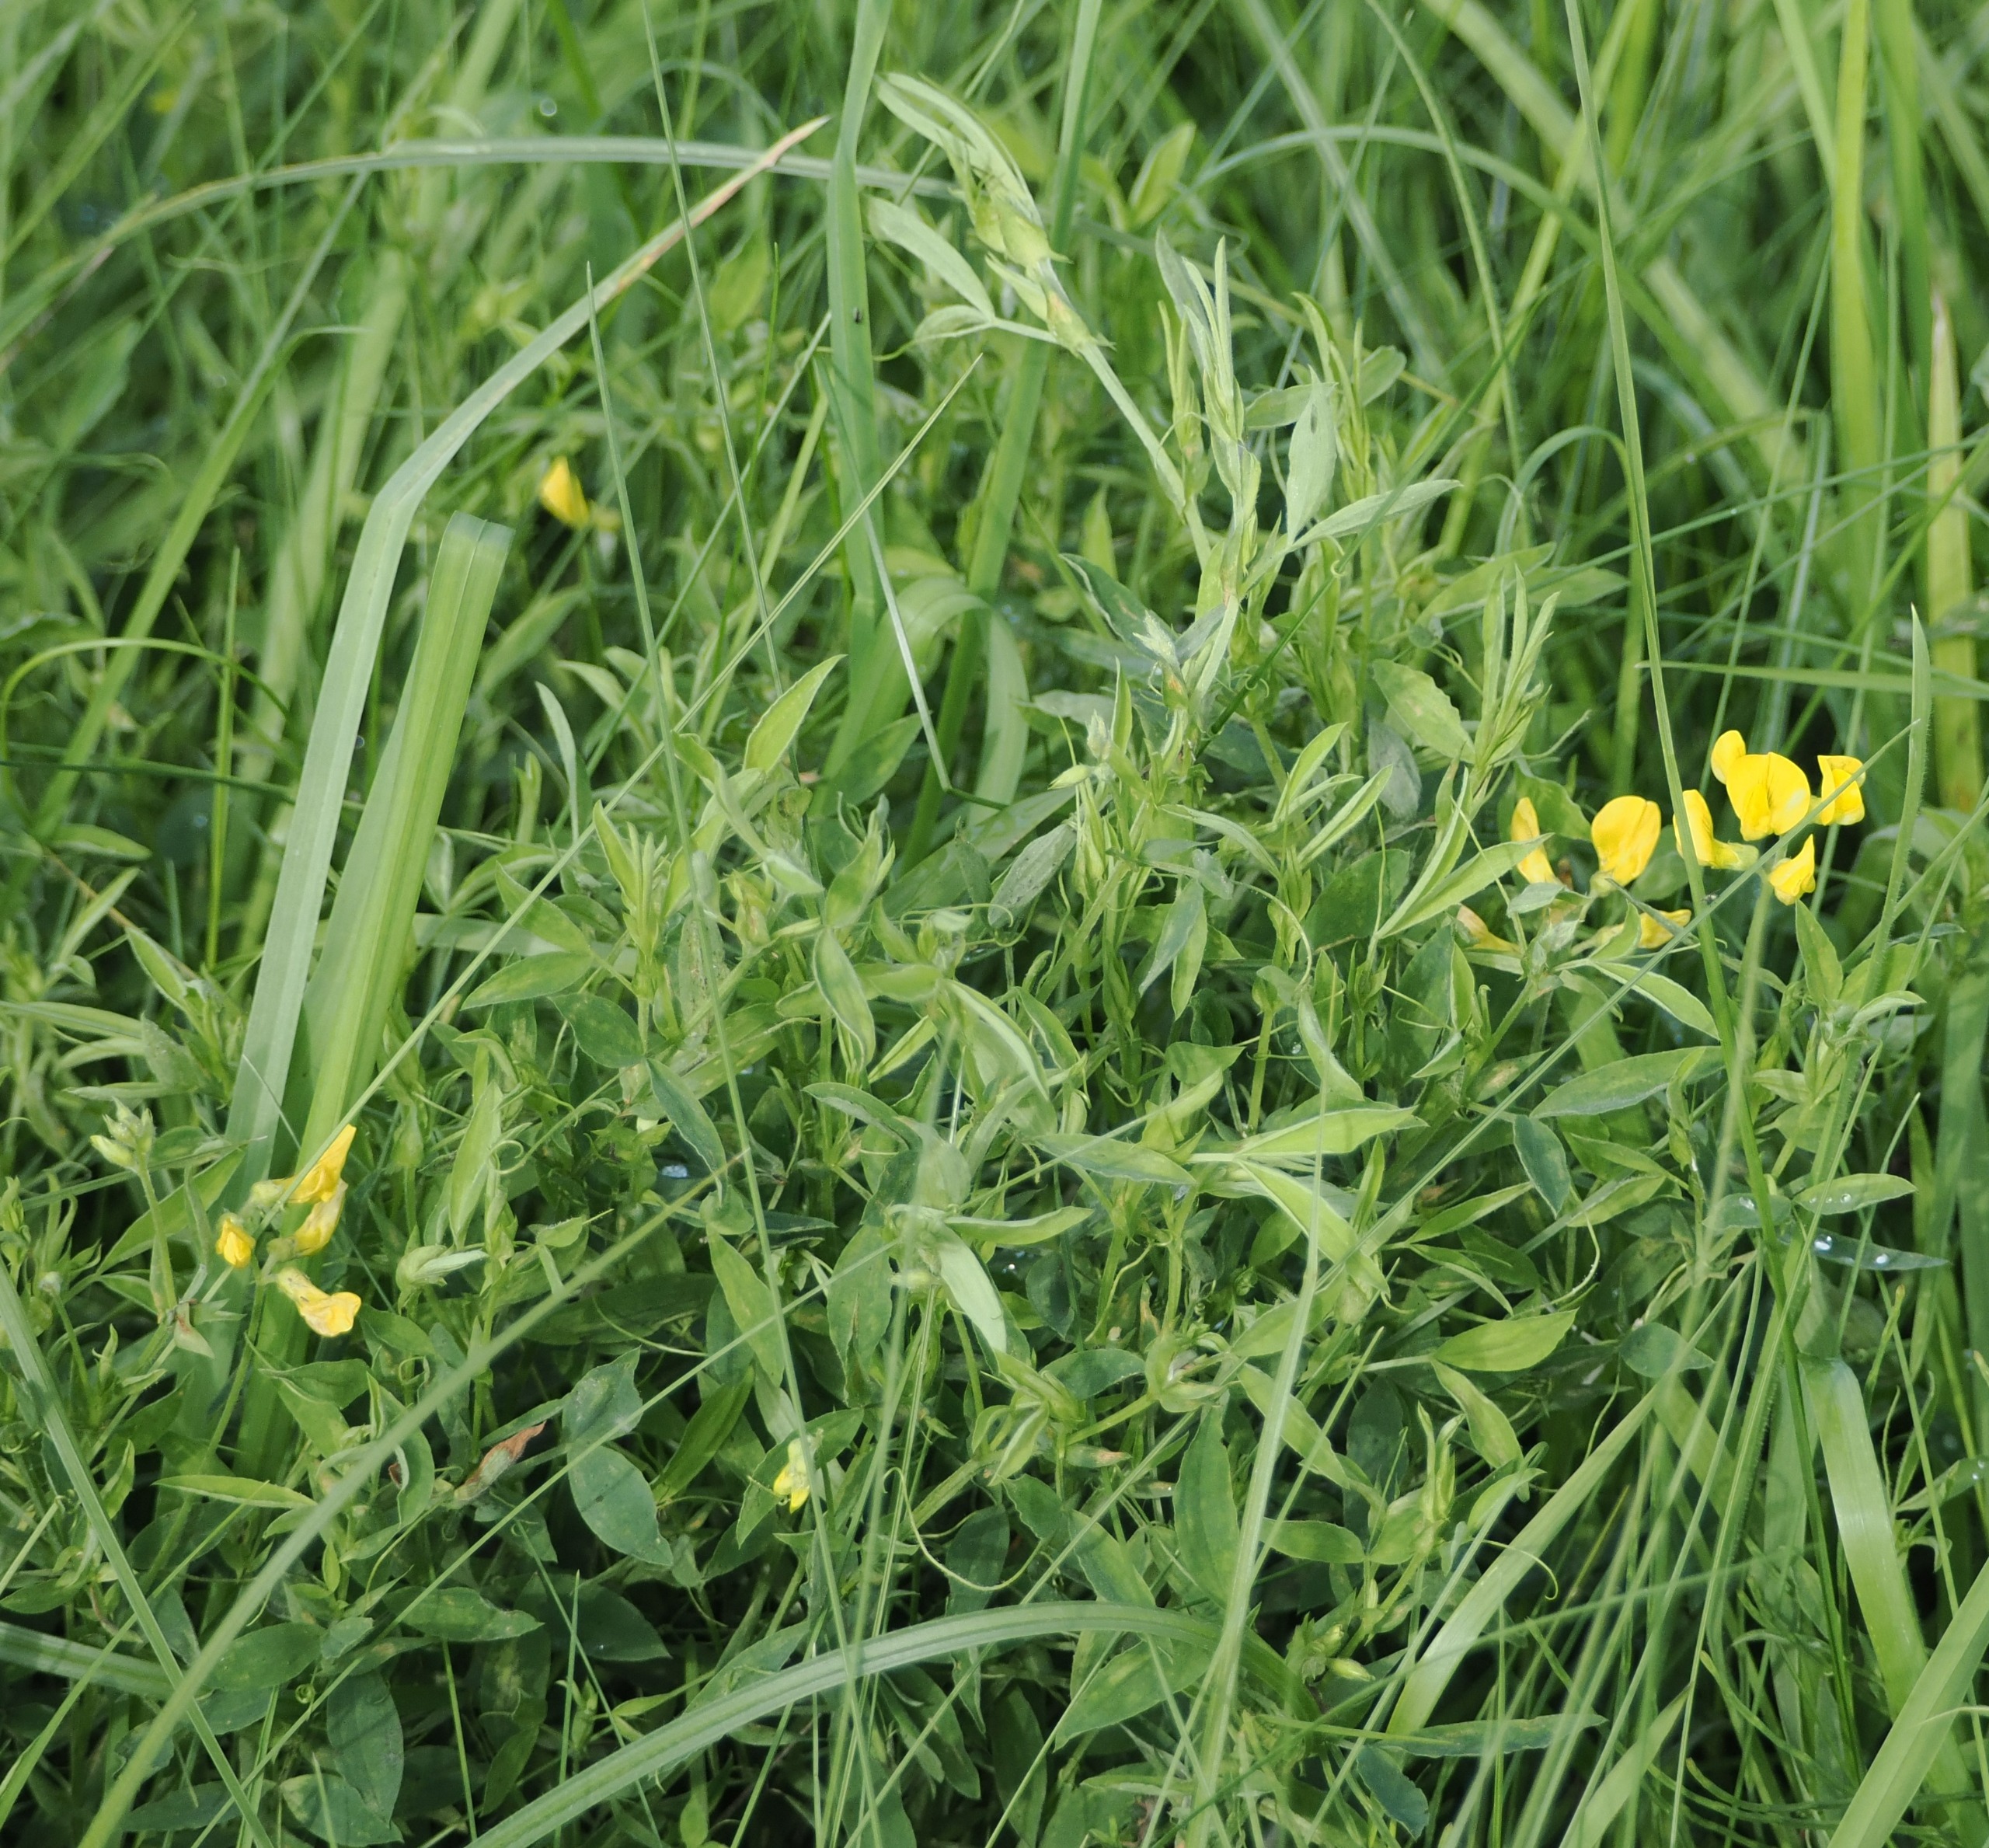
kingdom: Plantae
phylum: Tracheophyta
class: Magnoliopsida
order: Fabales
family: Fabaceae
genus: Lathyrus
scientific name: Lathyrus pratensis
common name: Gul fladbælg
